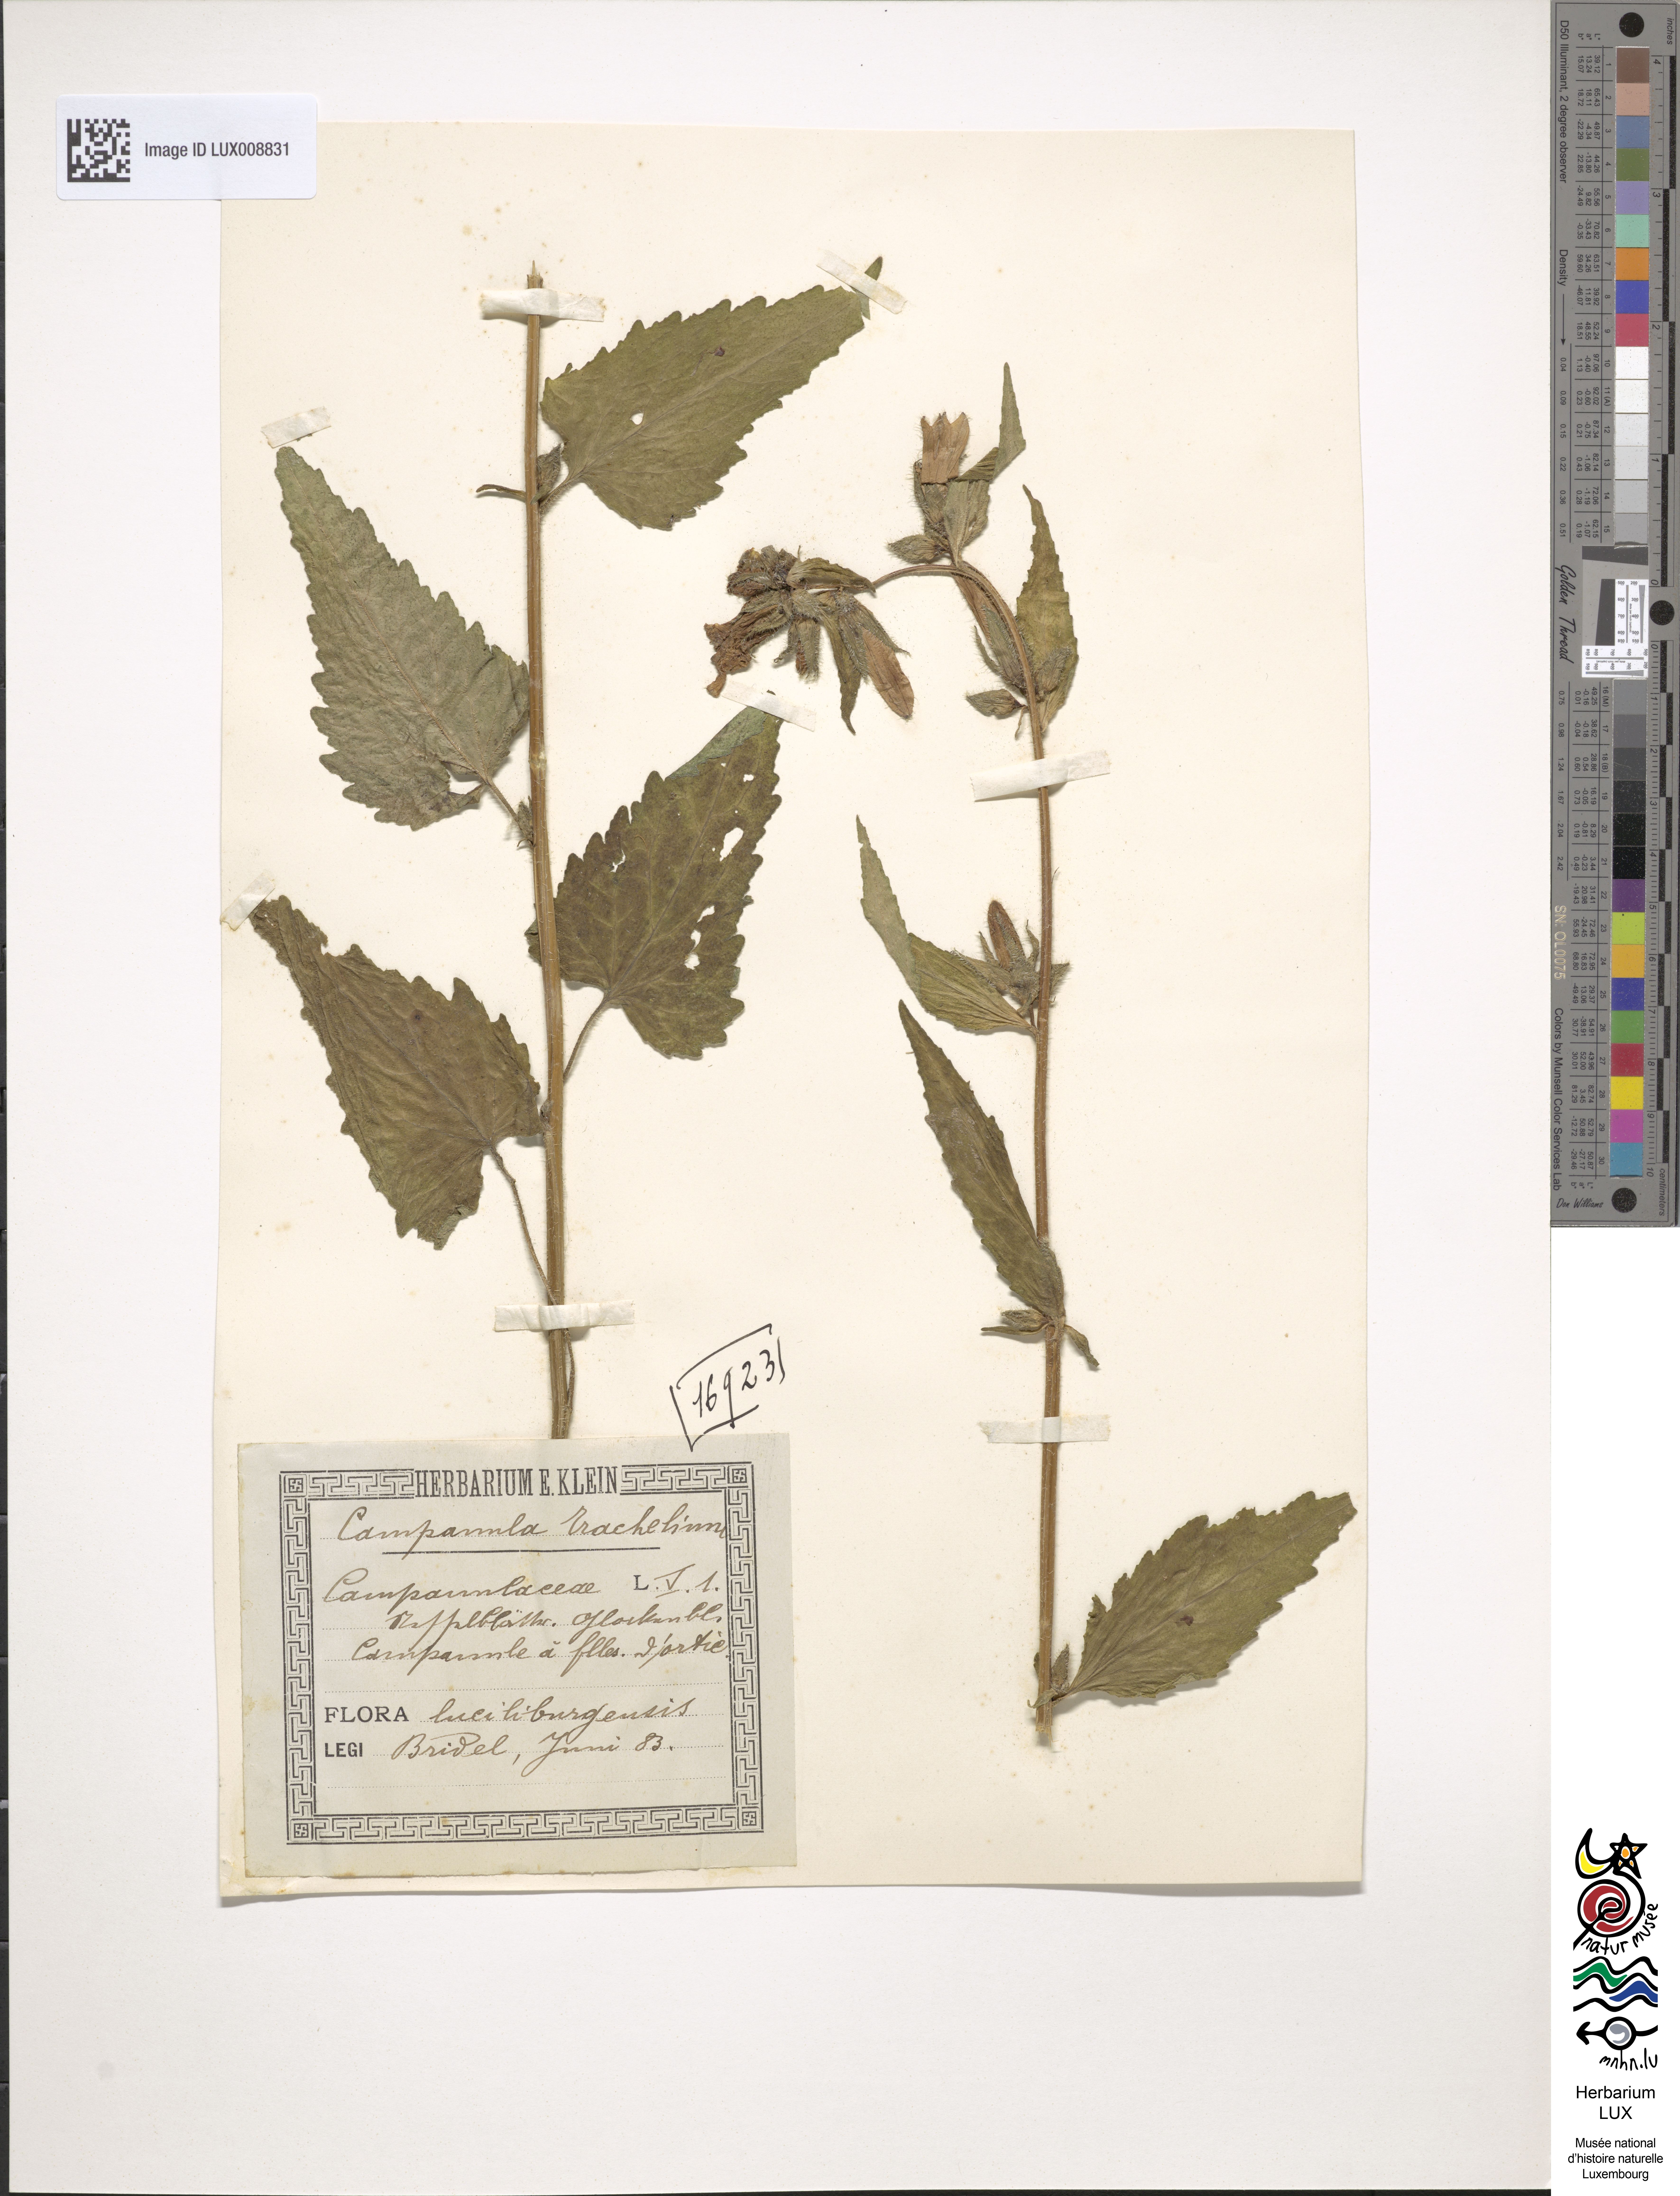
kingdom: Plantae
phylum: Tracheophyta
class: Magnoliopsida
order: Asterales
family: Campanulaceae
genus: Campanula
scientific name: Campanula trachelium
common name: Nettle-leaved bellflower
